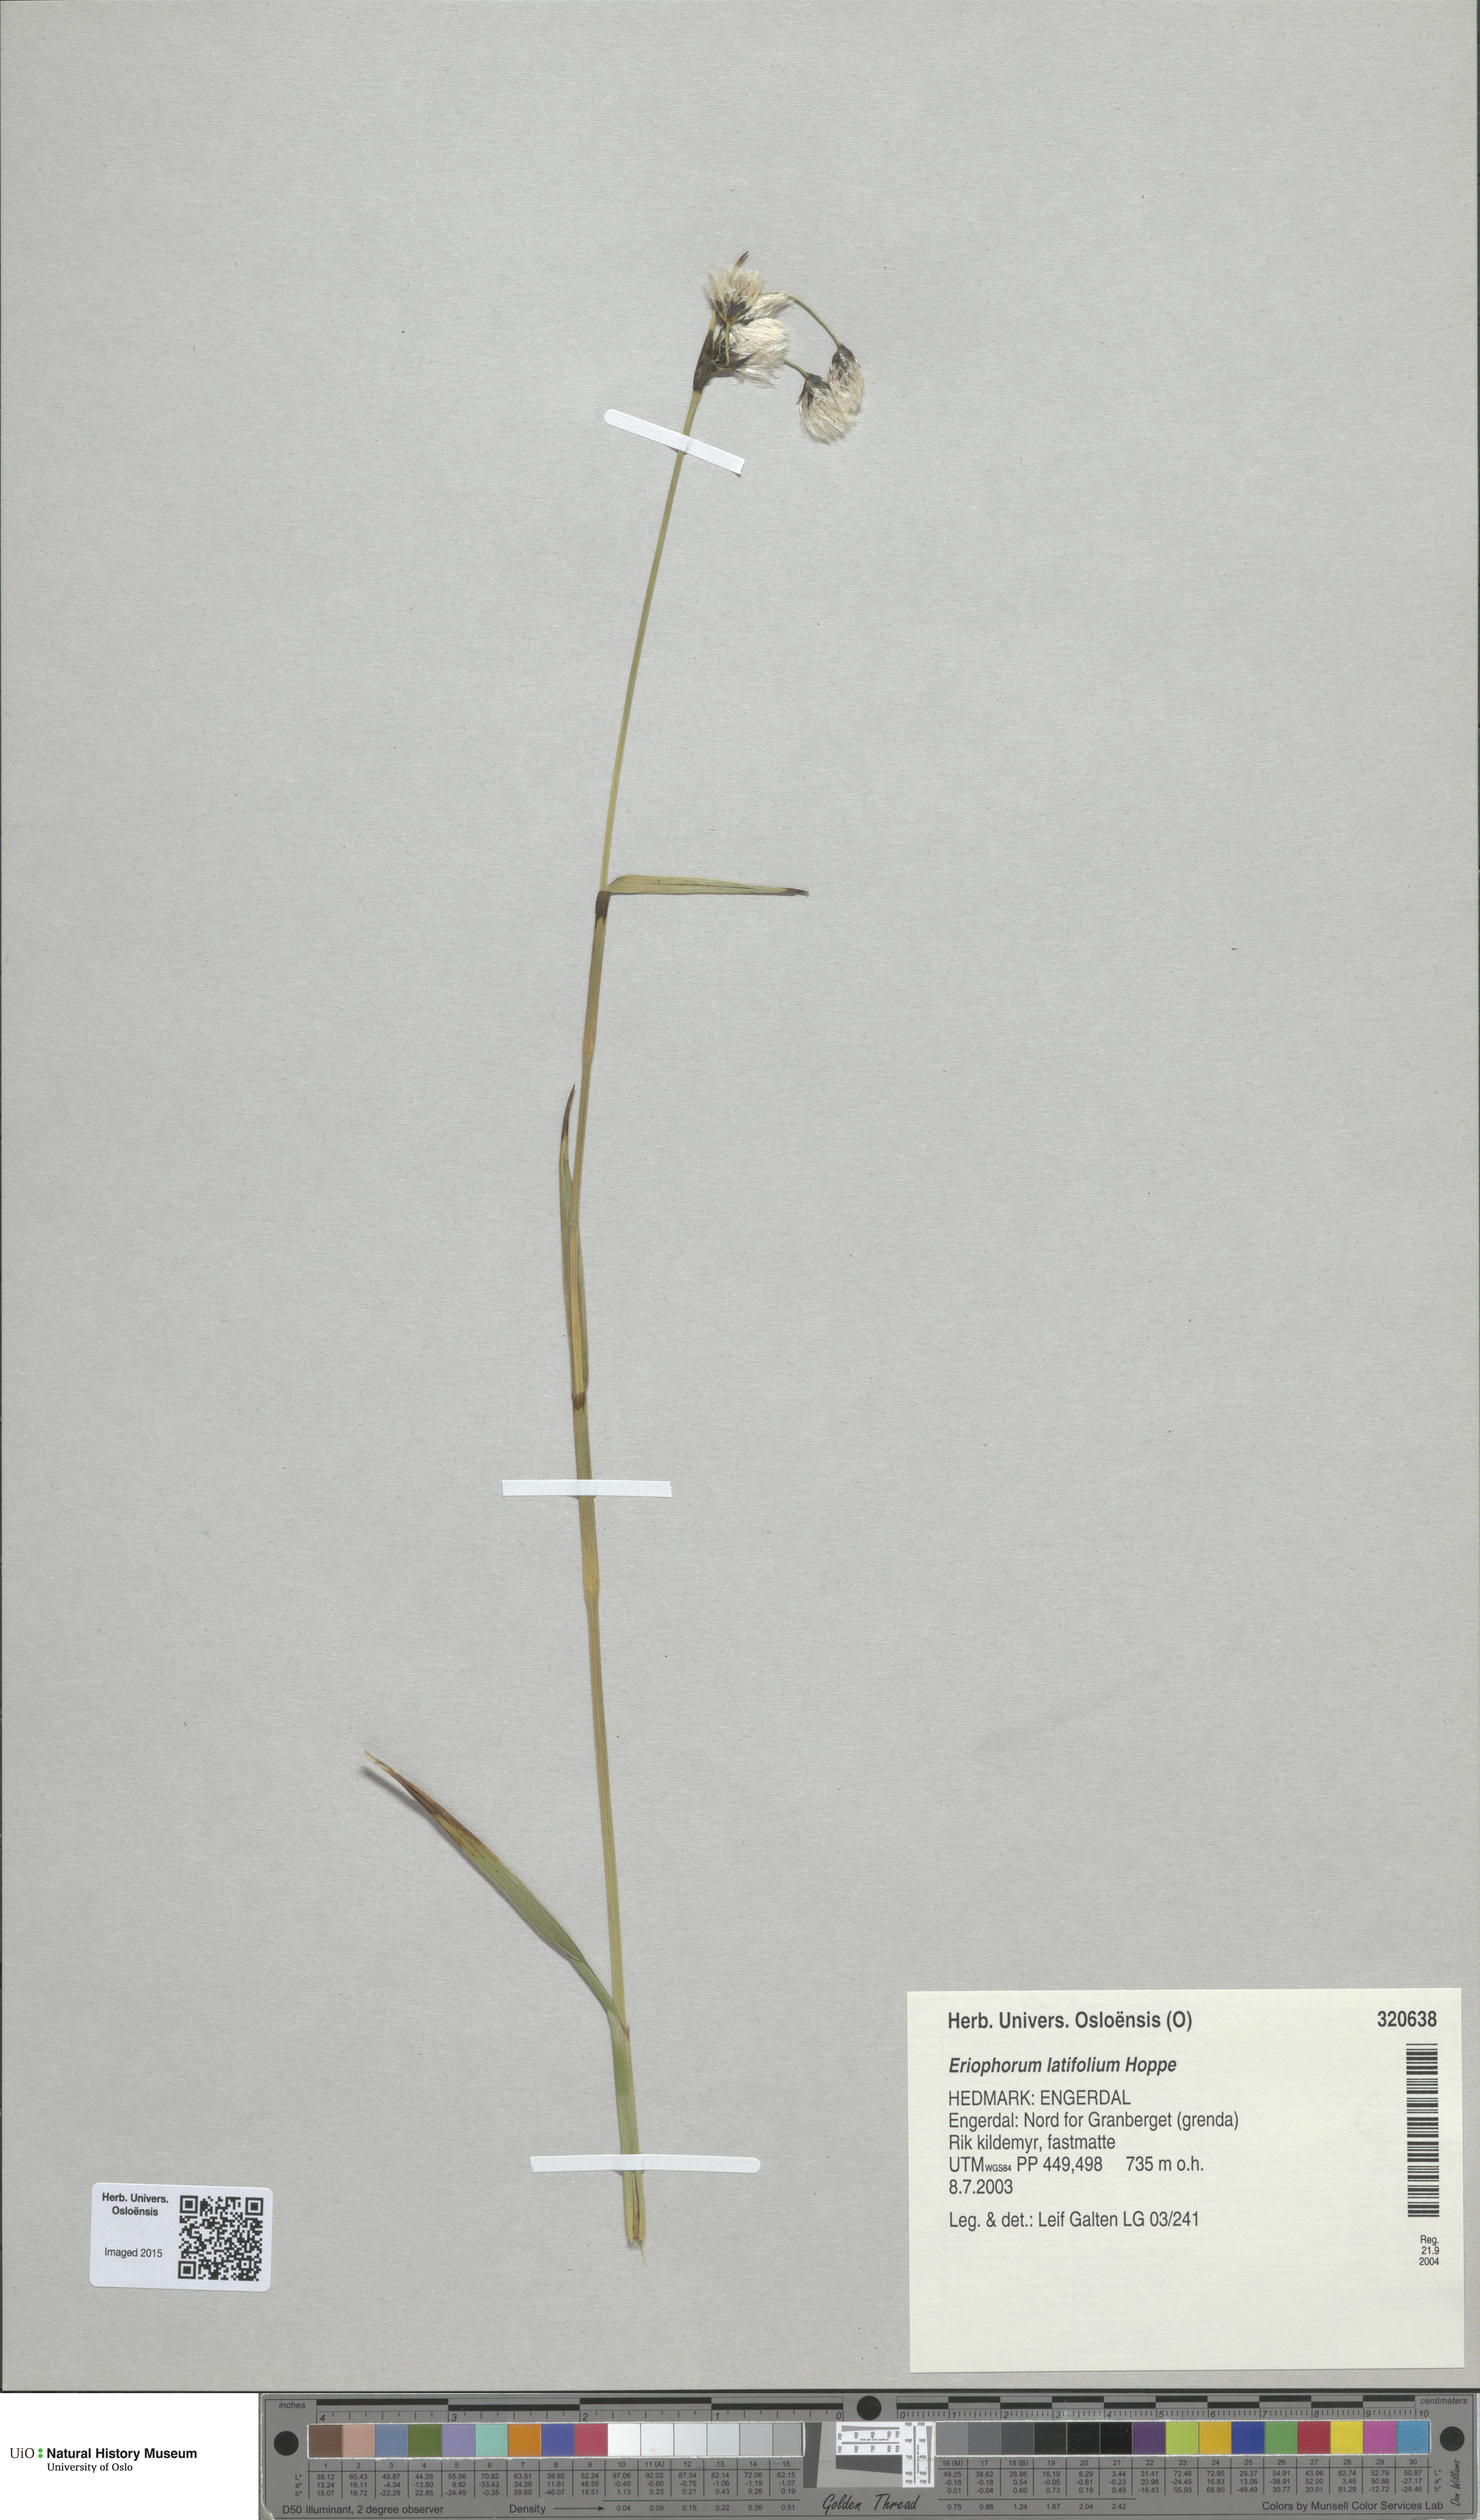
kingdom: Plantae
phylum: Tracheophyta
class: Liliopsida
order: Poales
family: Cyperaceae
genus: Eriophorum
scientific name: Eriophorum latifolium
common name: Broad-leaved cottongrass
